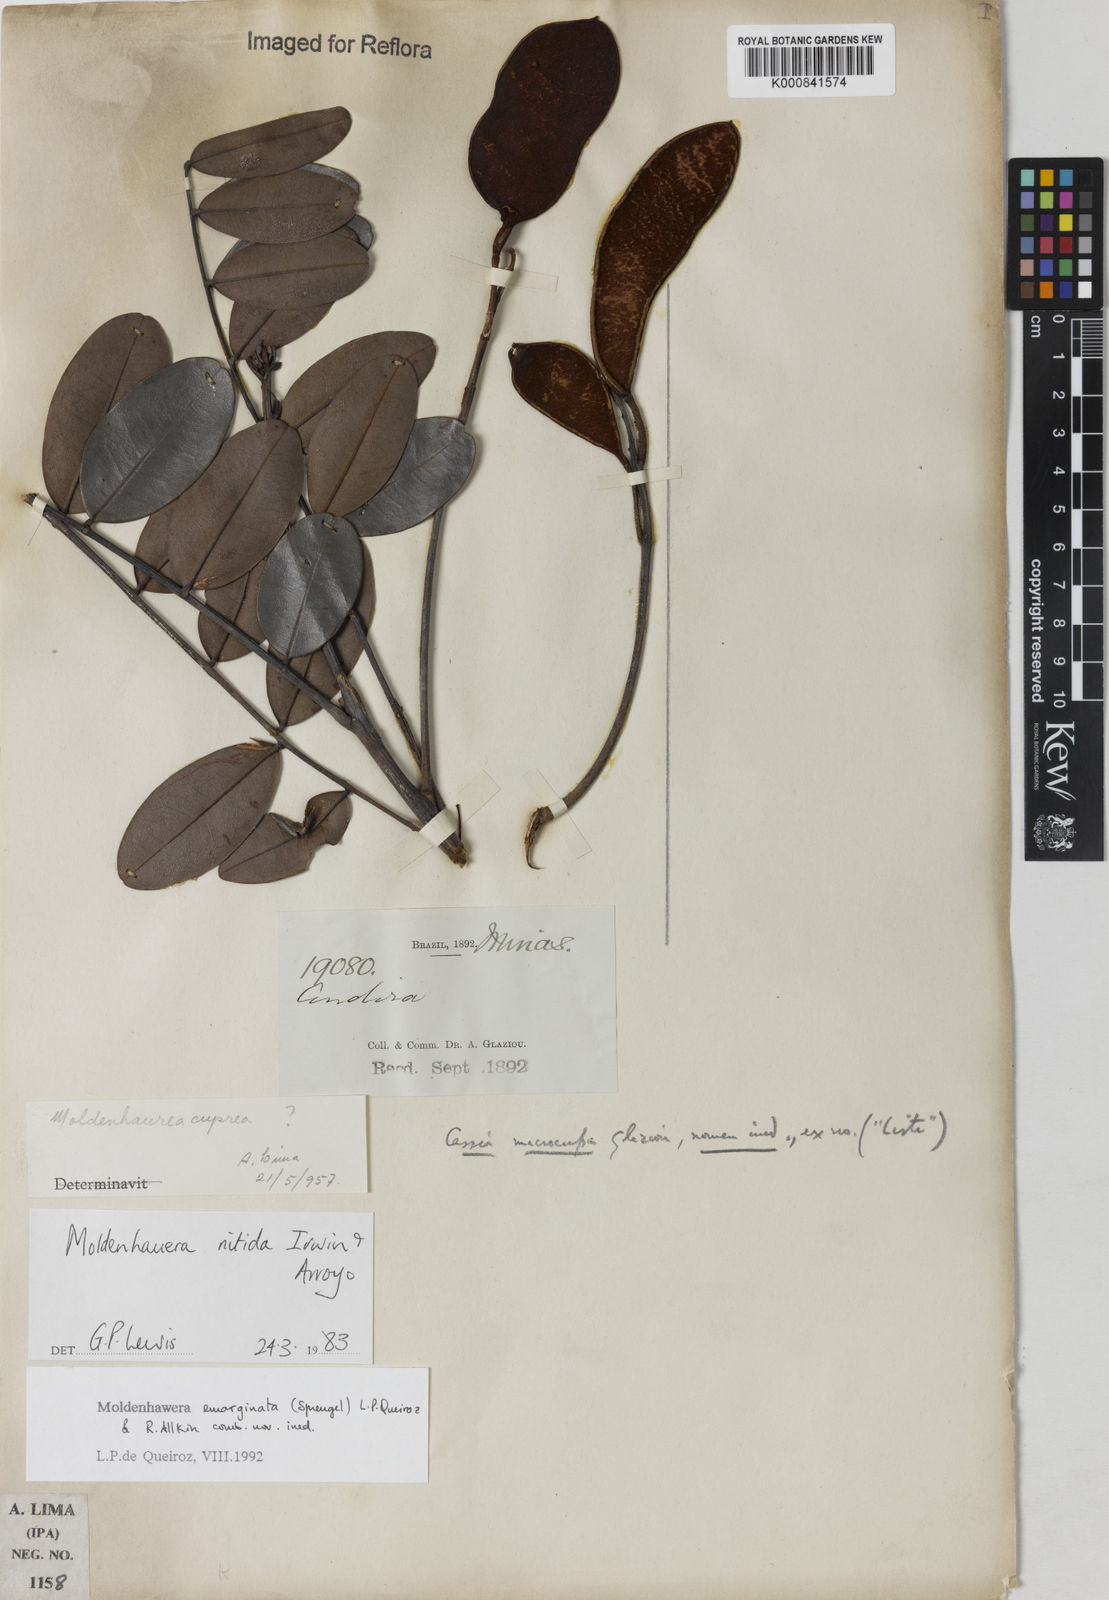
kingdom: Plantae
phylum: Tracheophyta
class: Magnoliopsida
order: Fabales
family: Fabaceae
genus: Moldenhawera
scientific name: Moldenhawera emarginata
